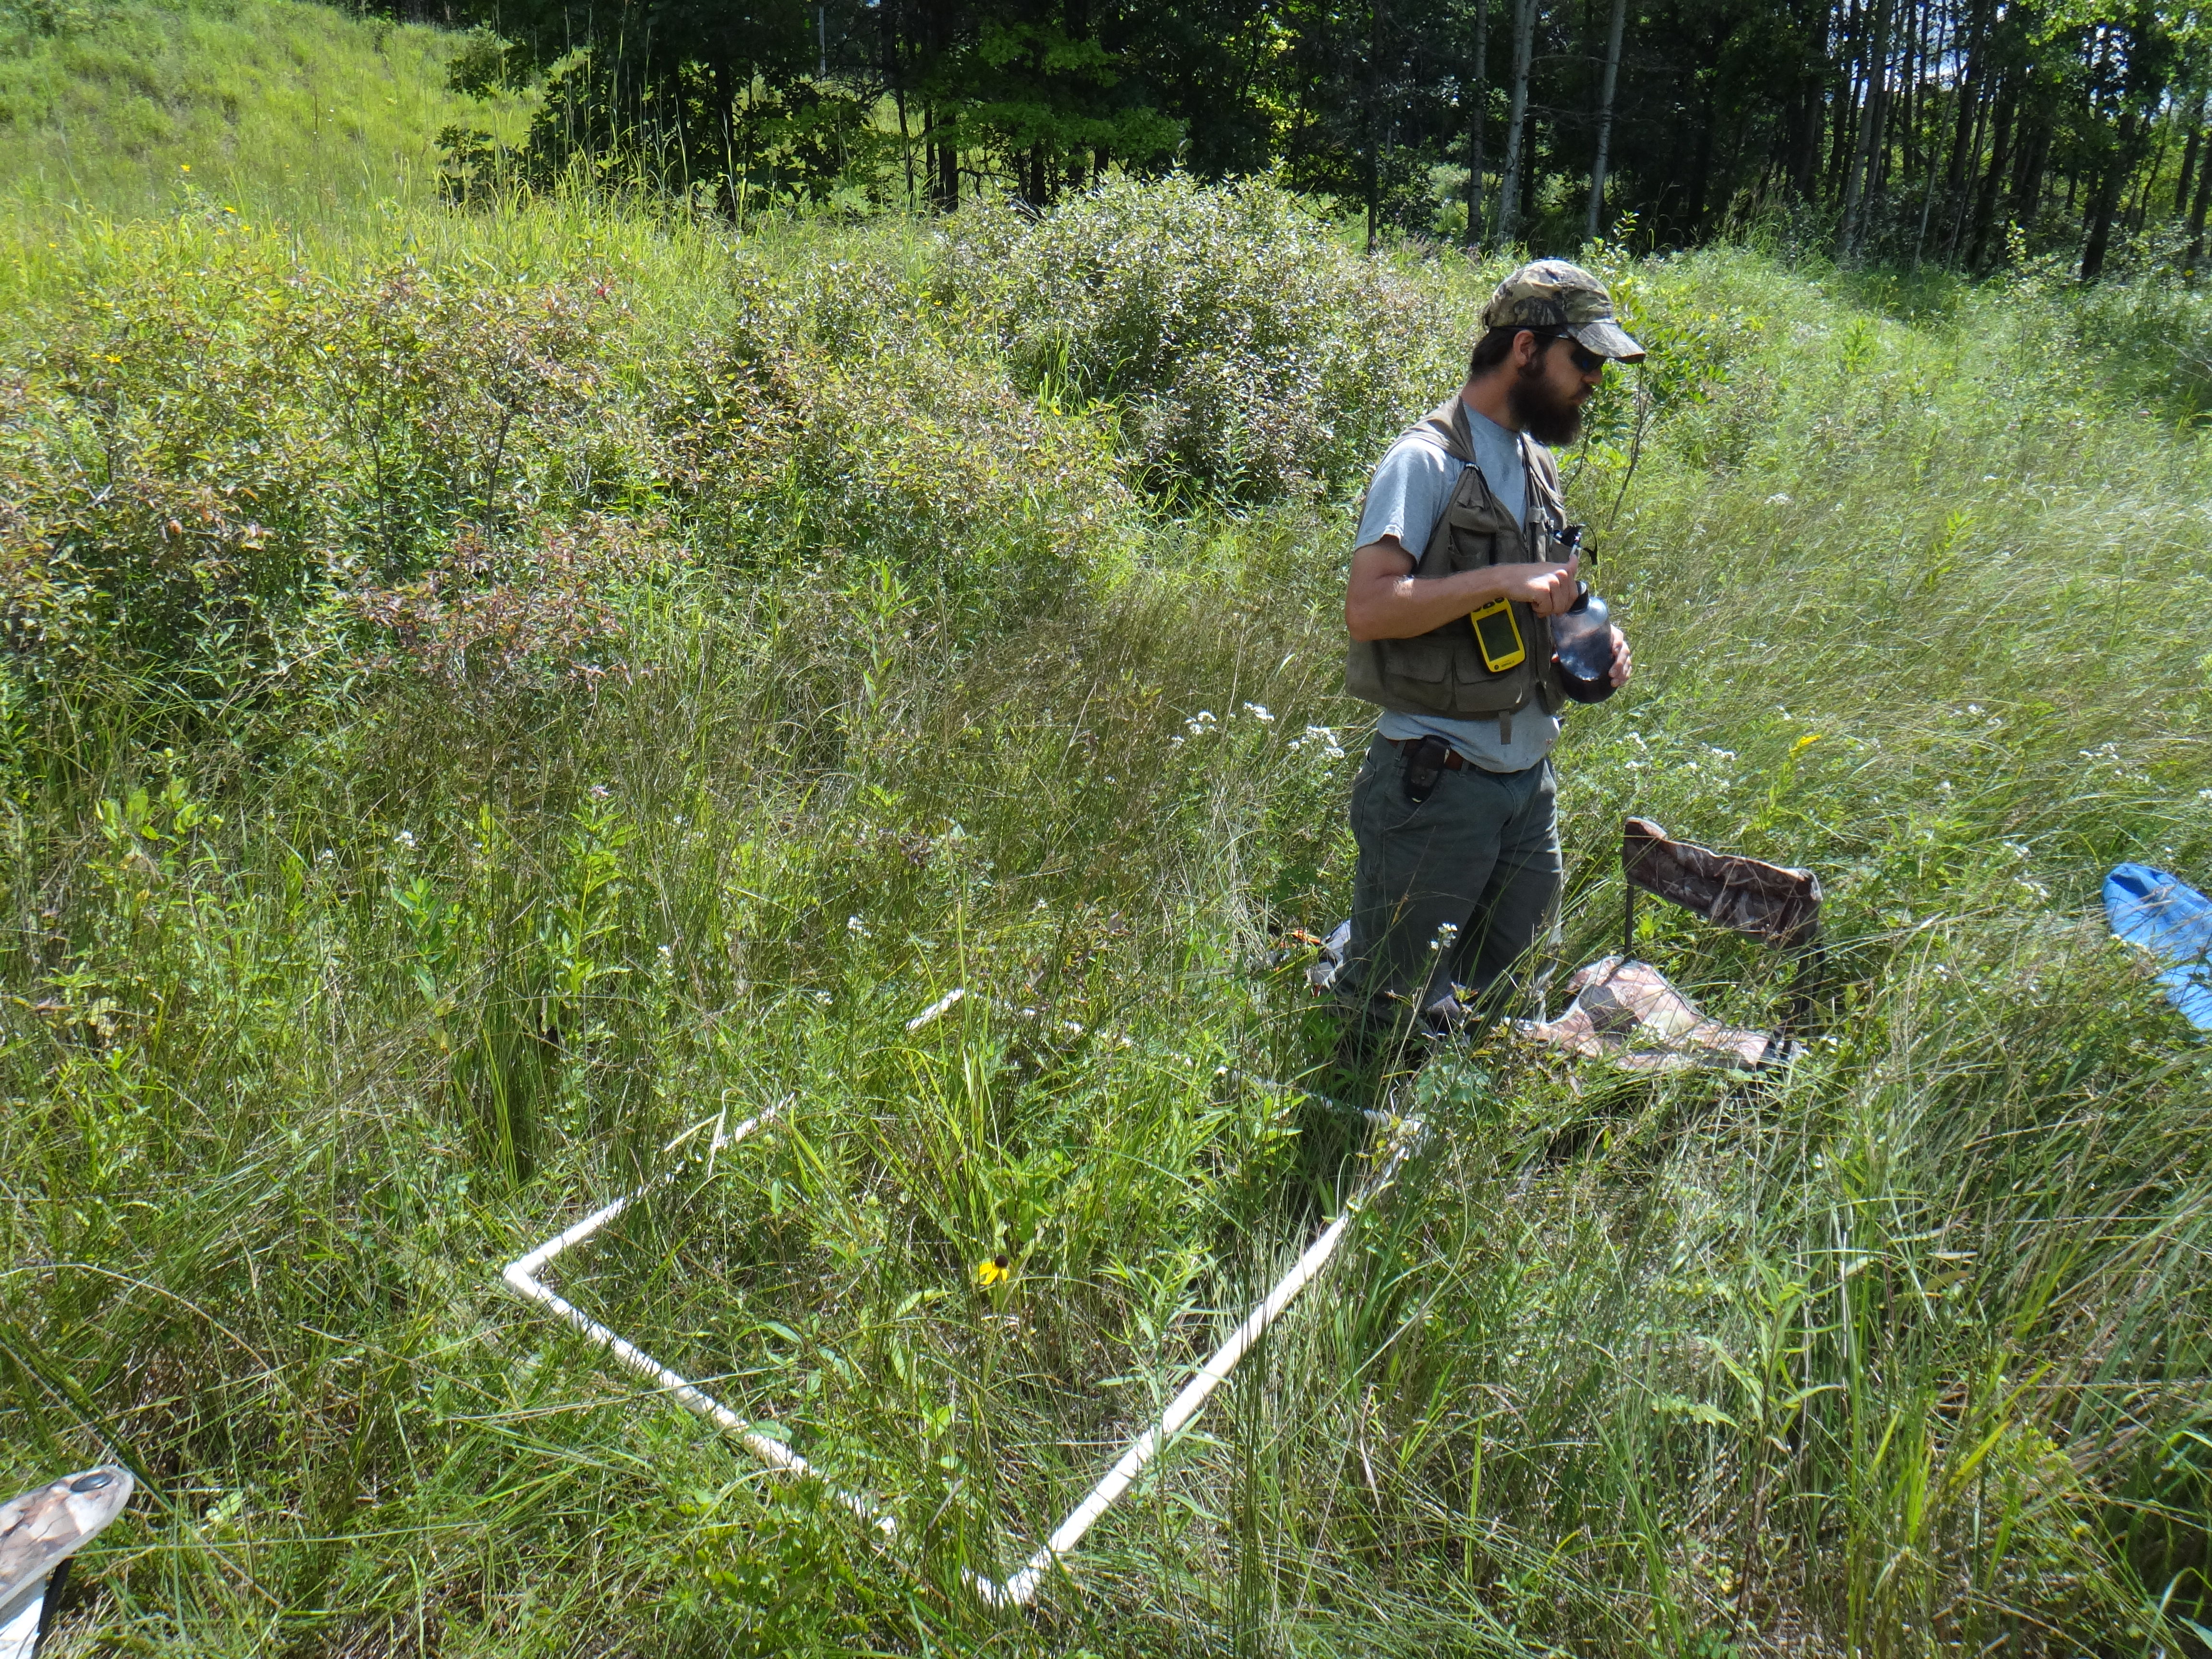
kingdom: Plantae
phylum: Tracheophyta
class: Liliopsida
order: Poales
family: Poaceae
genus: Glyceria
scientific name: Glyceria striata
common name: Fowl manna grass
